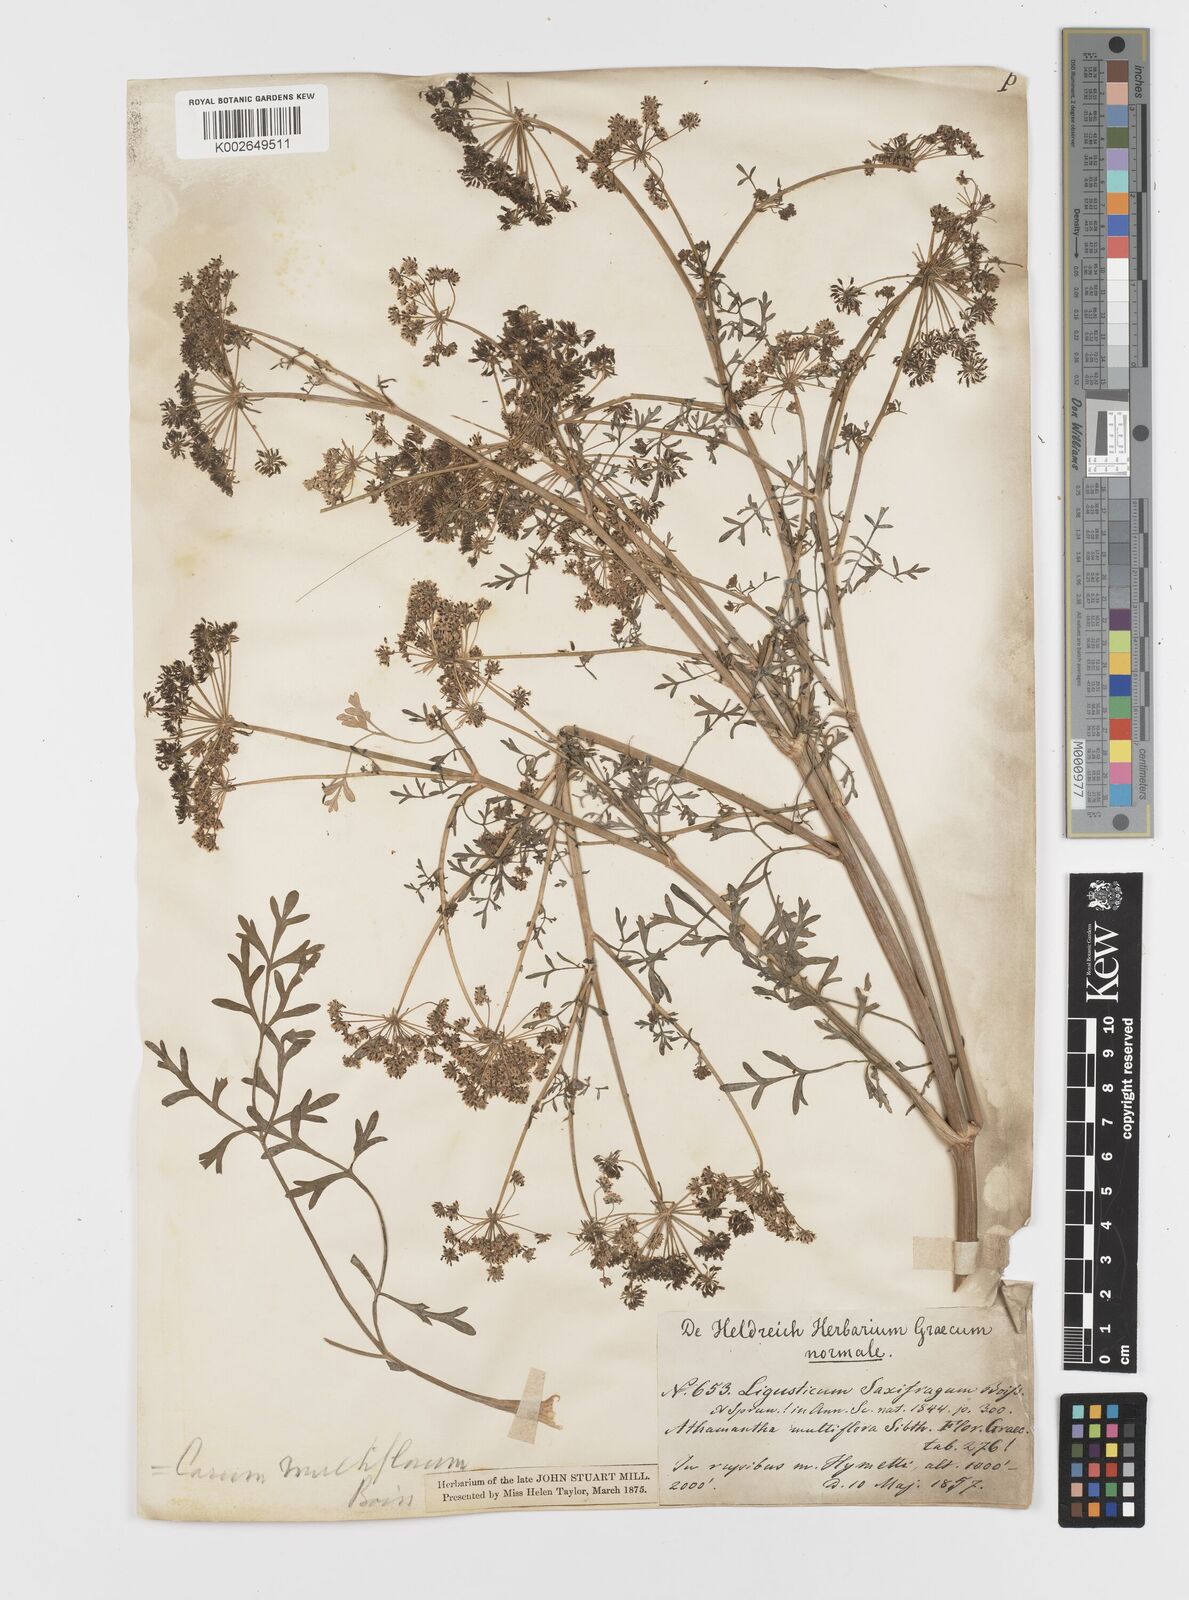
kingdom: Plantae
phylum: Tracheophyta
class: Magnoliopsida
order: Apiales
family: Apiaceae
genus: Hellenocarum
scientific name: Hellenocarum multiflorum
